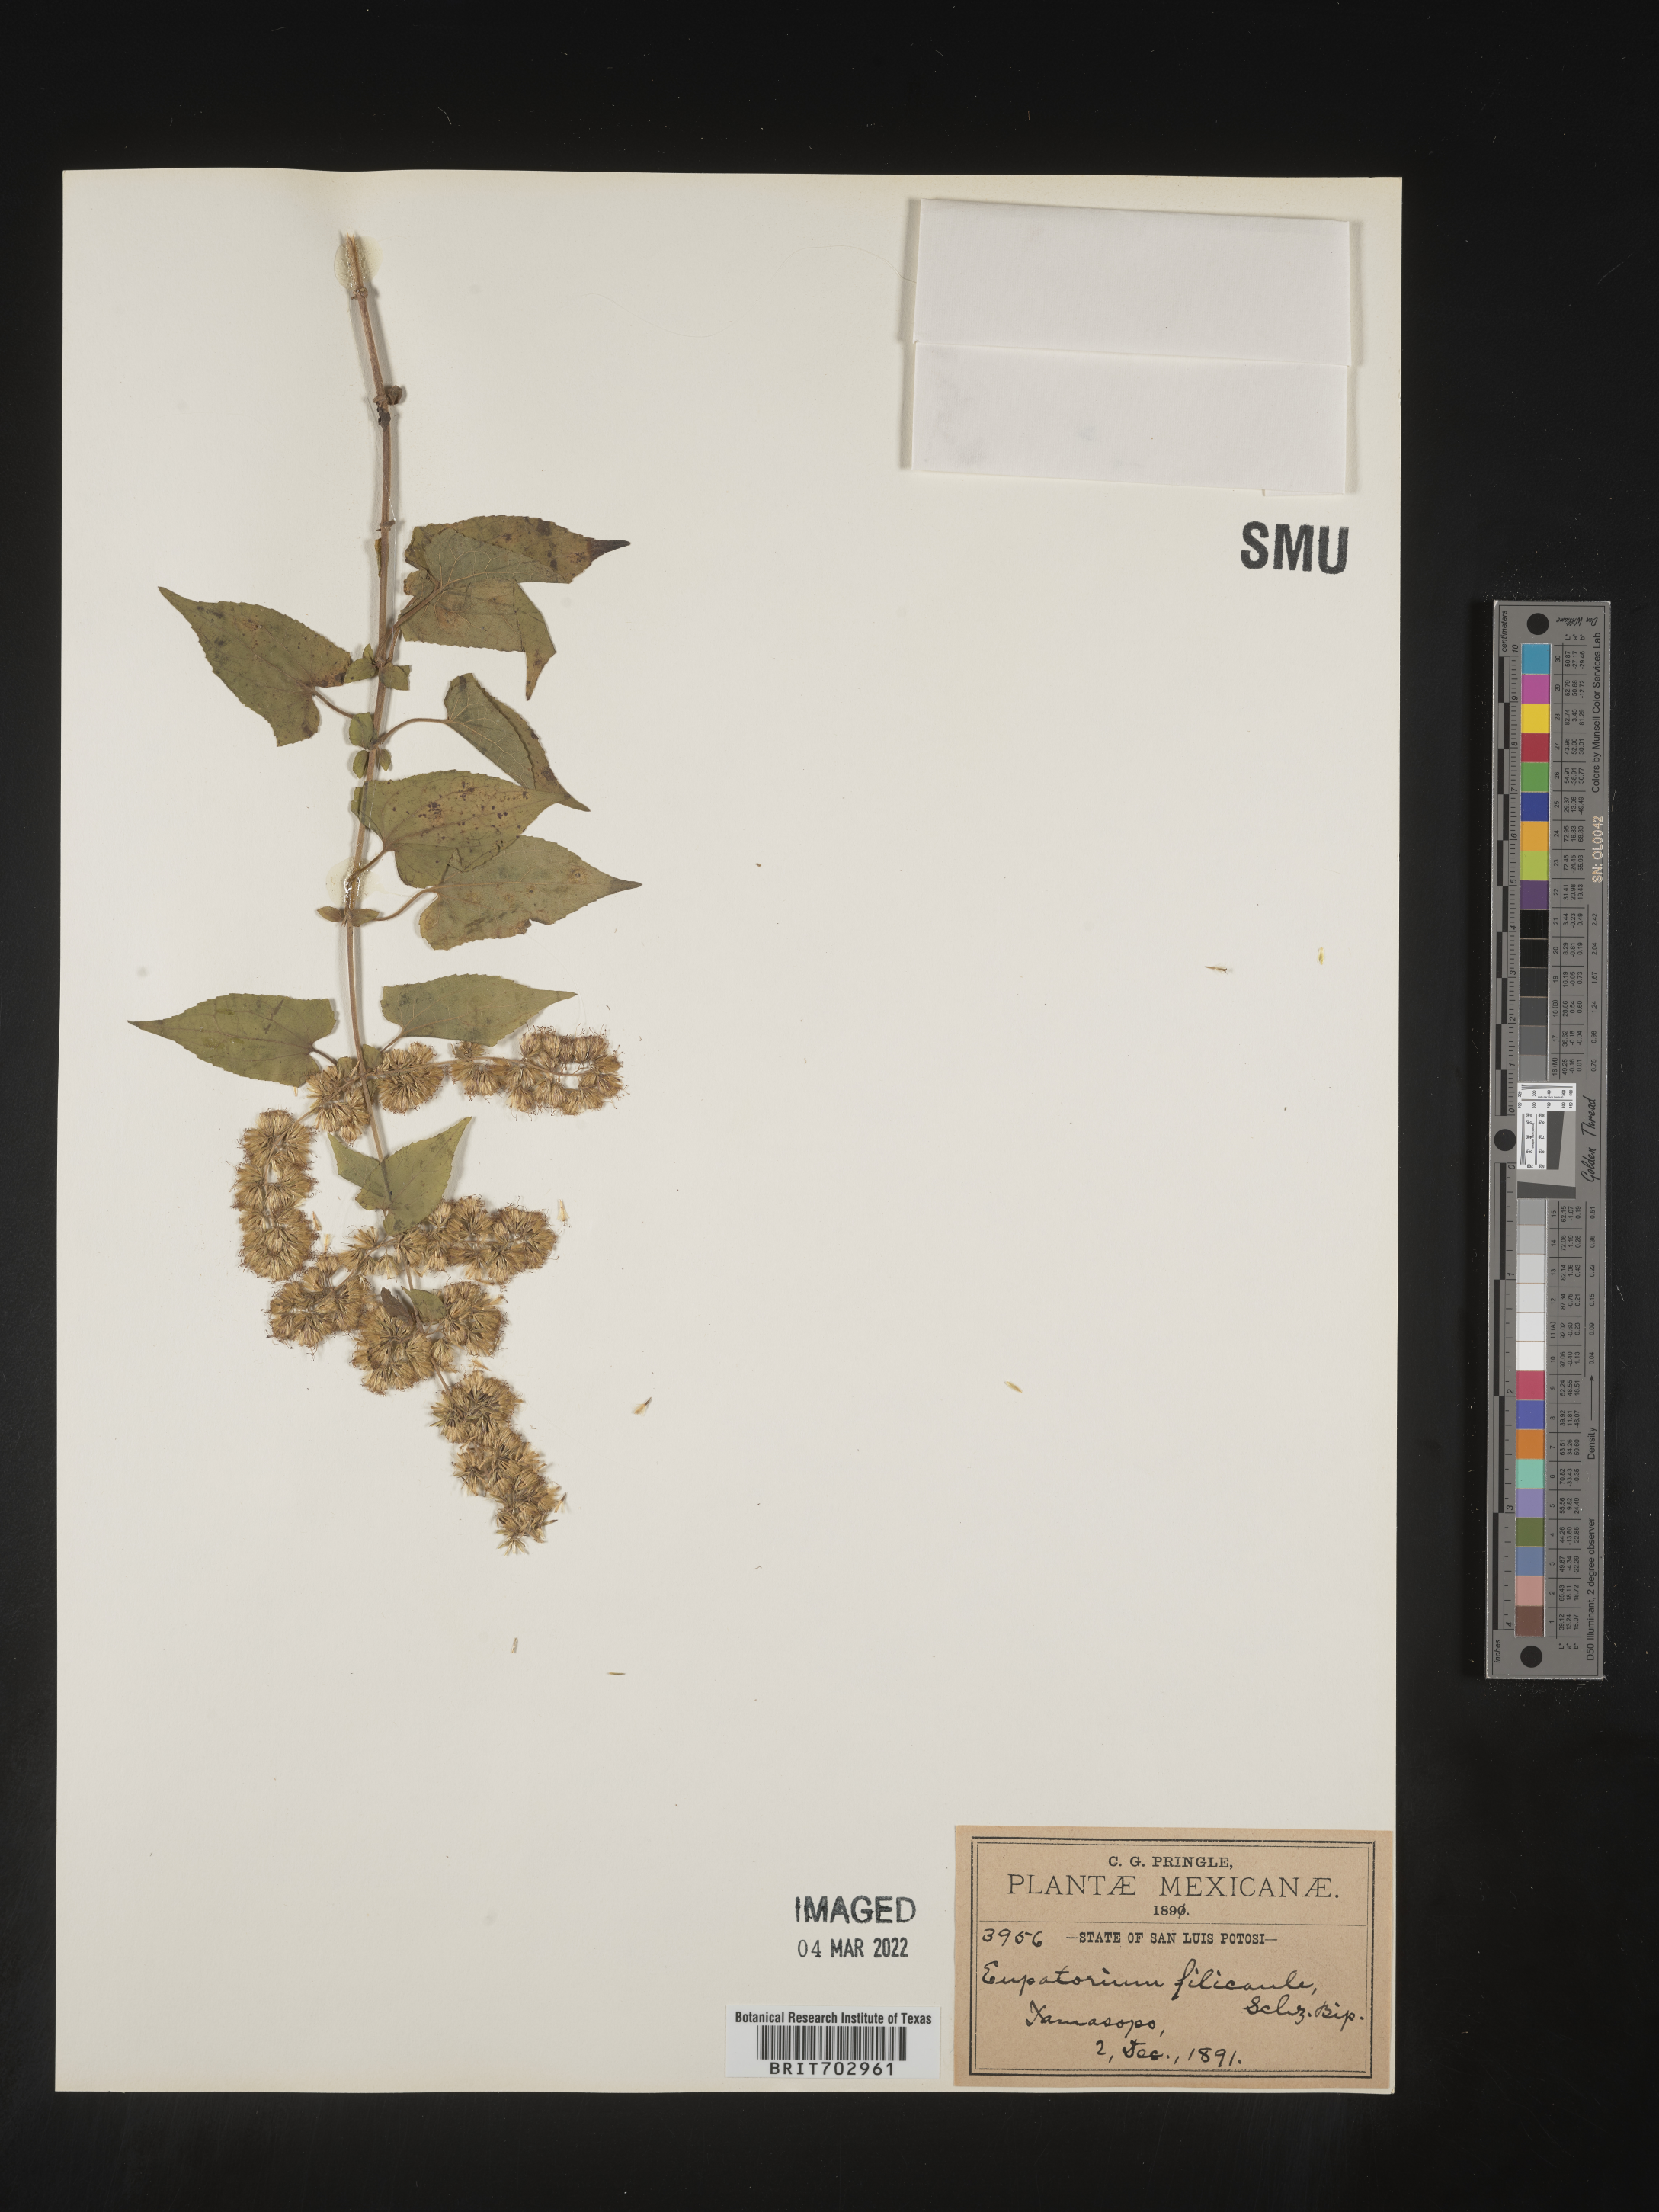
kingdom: Plantae
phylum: Tracheophyta
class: Magnoliopsida
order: Asterales
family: Asteraceae
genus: Eupatorium
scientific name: Eupatorium
